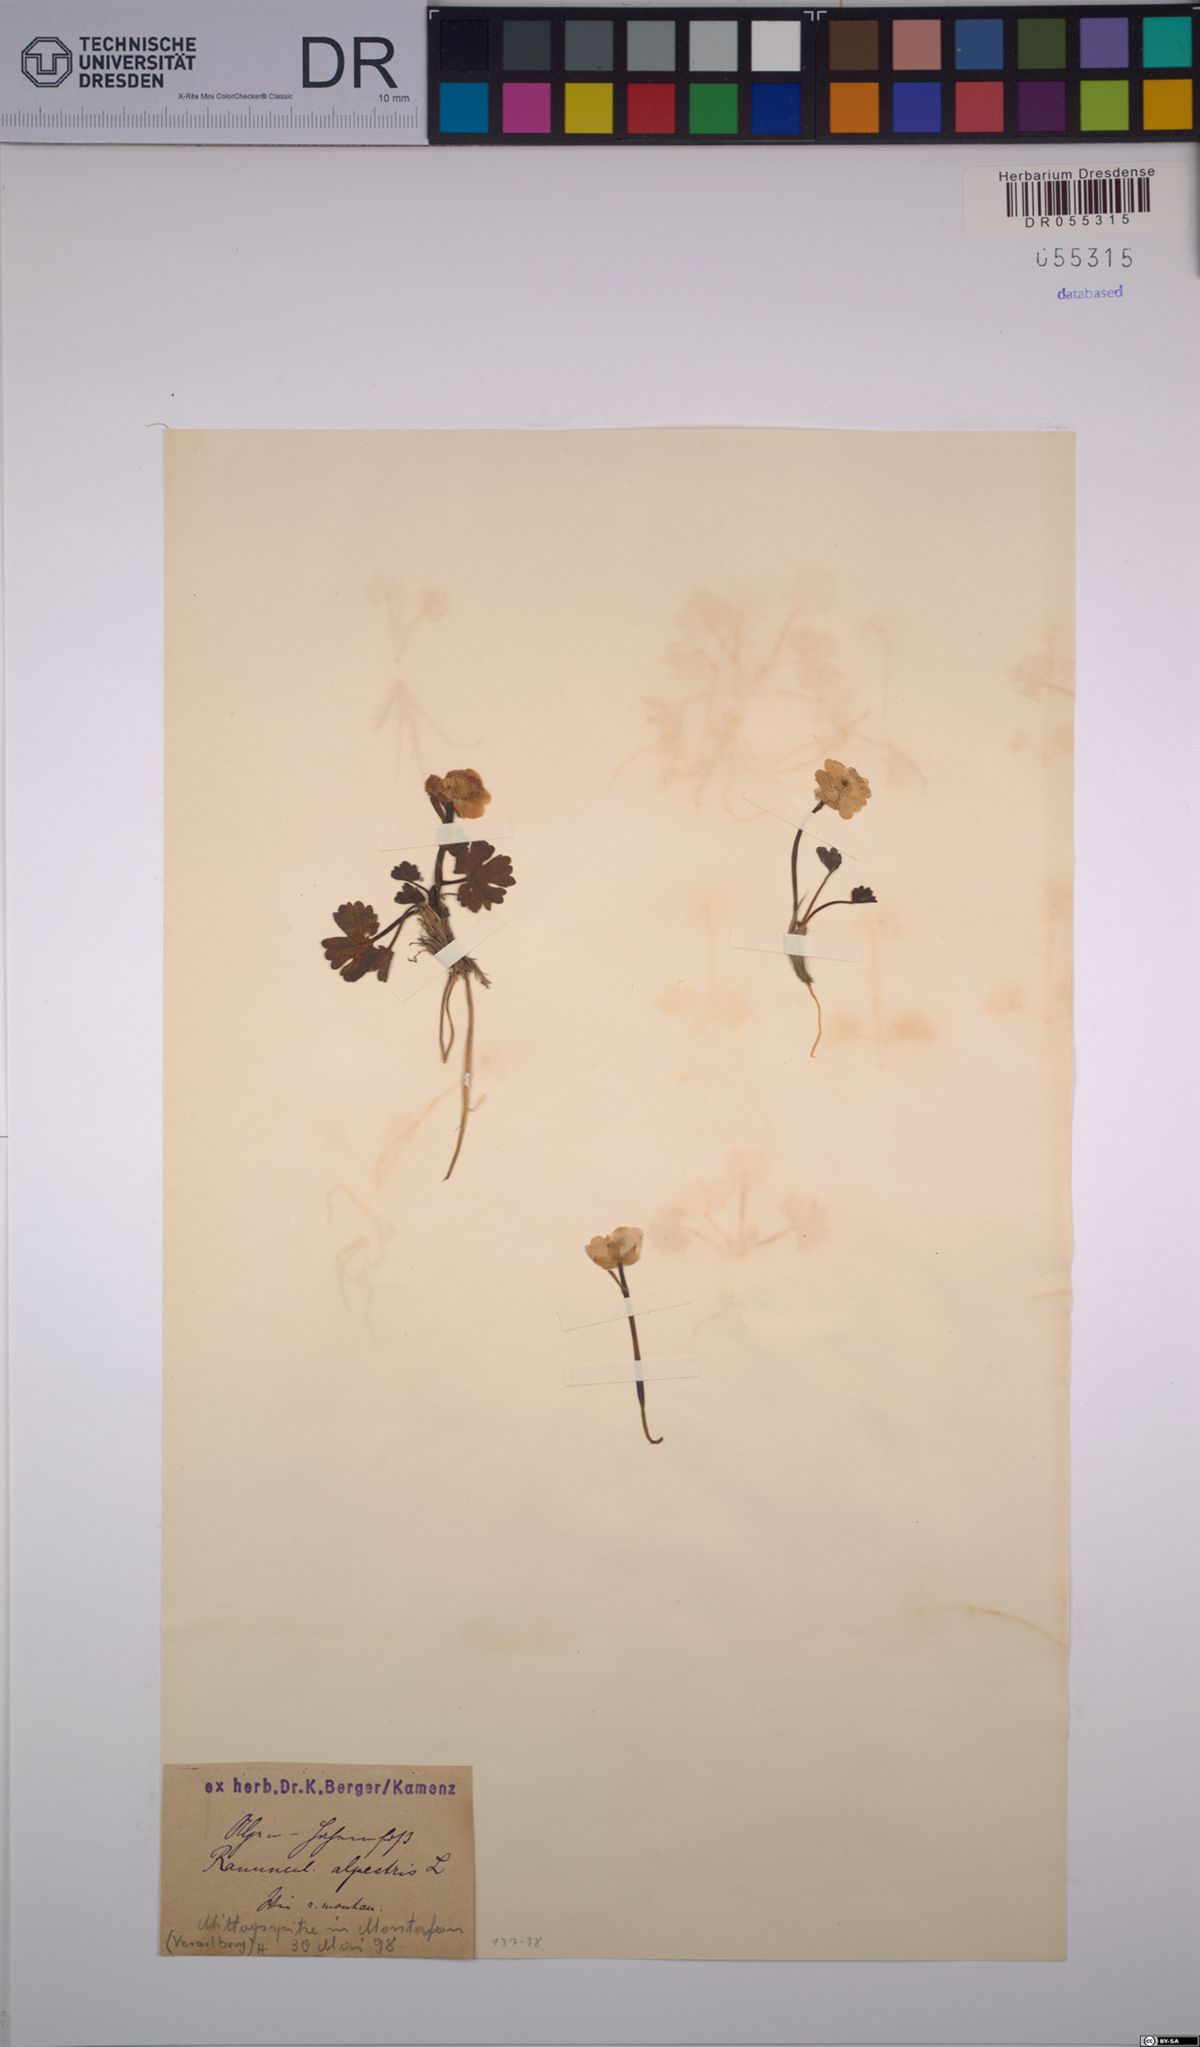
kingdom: Plantae
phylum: Tracheophyta
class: Magnoliopsida
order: Ranunculales
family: Ranunculaceae
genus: Ranunculus
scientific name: Ranunculus alpestris
